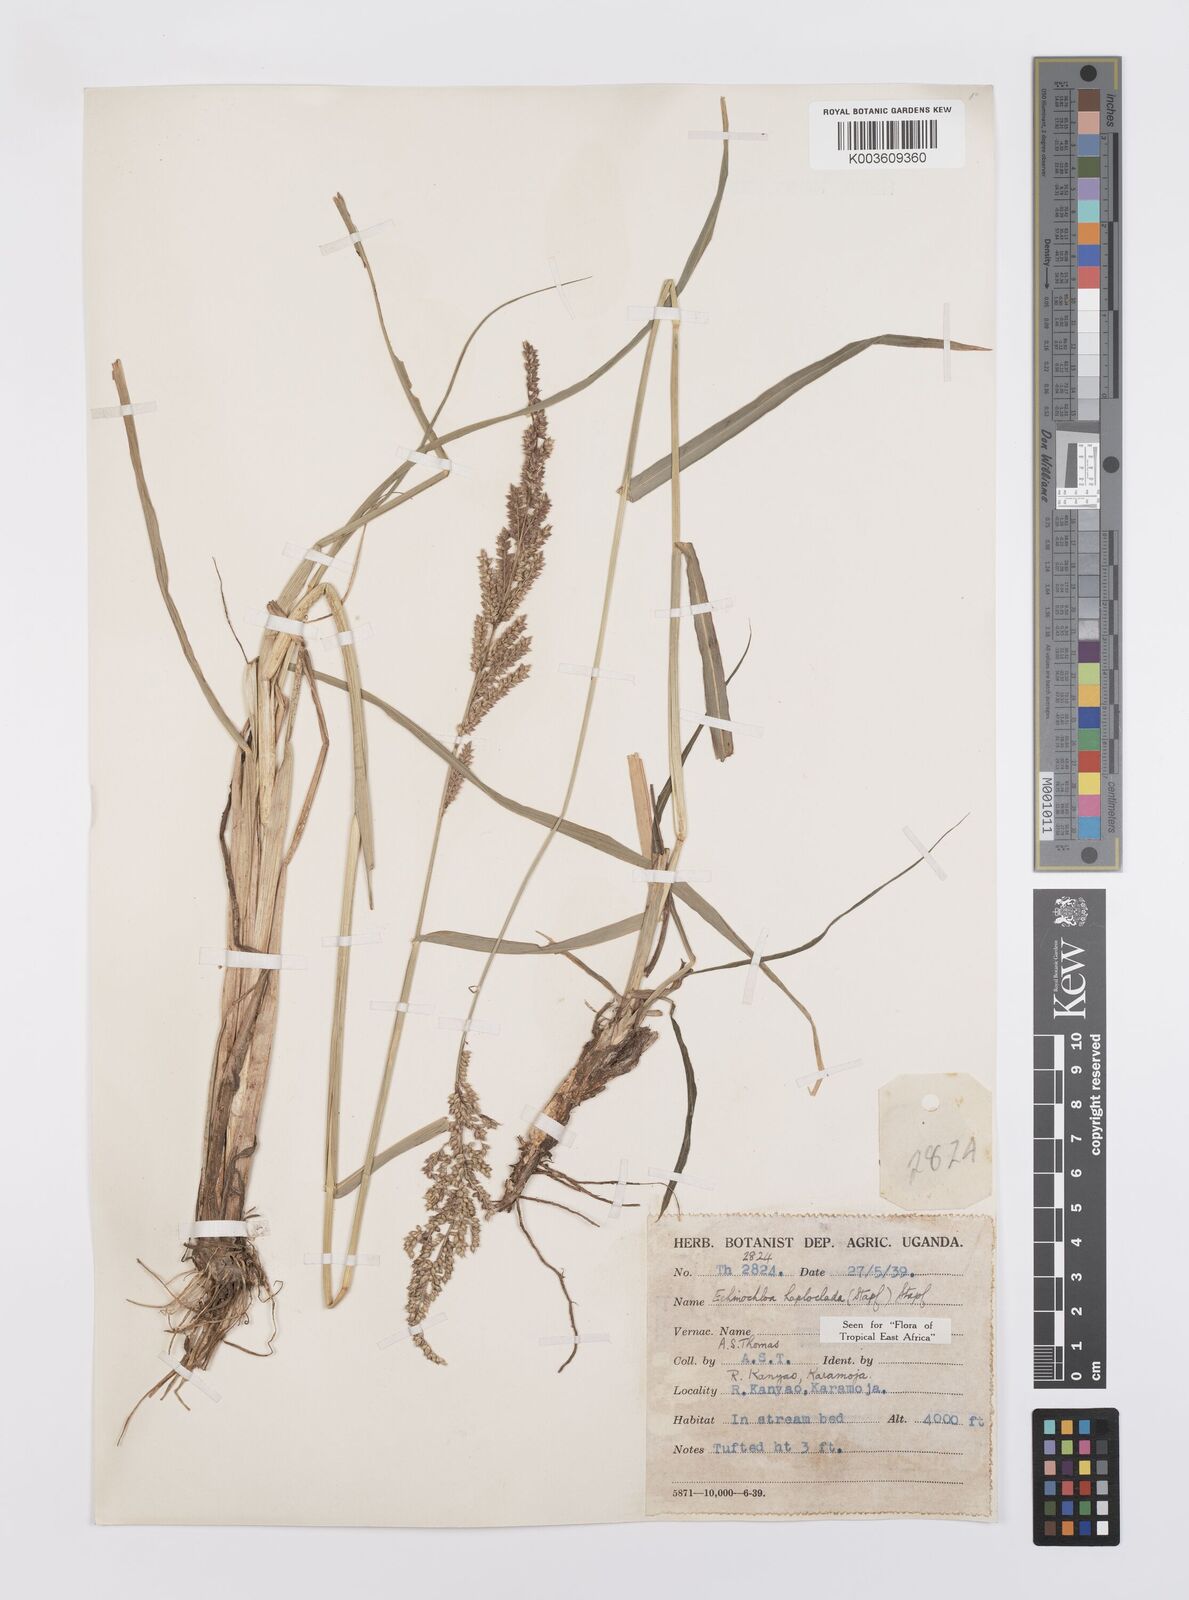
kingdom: Plantae
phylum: Tracheophyta
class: Liliopsida
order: Poales
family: Poaceae
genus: Echinochloa
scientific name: Echinochloa haploclada
